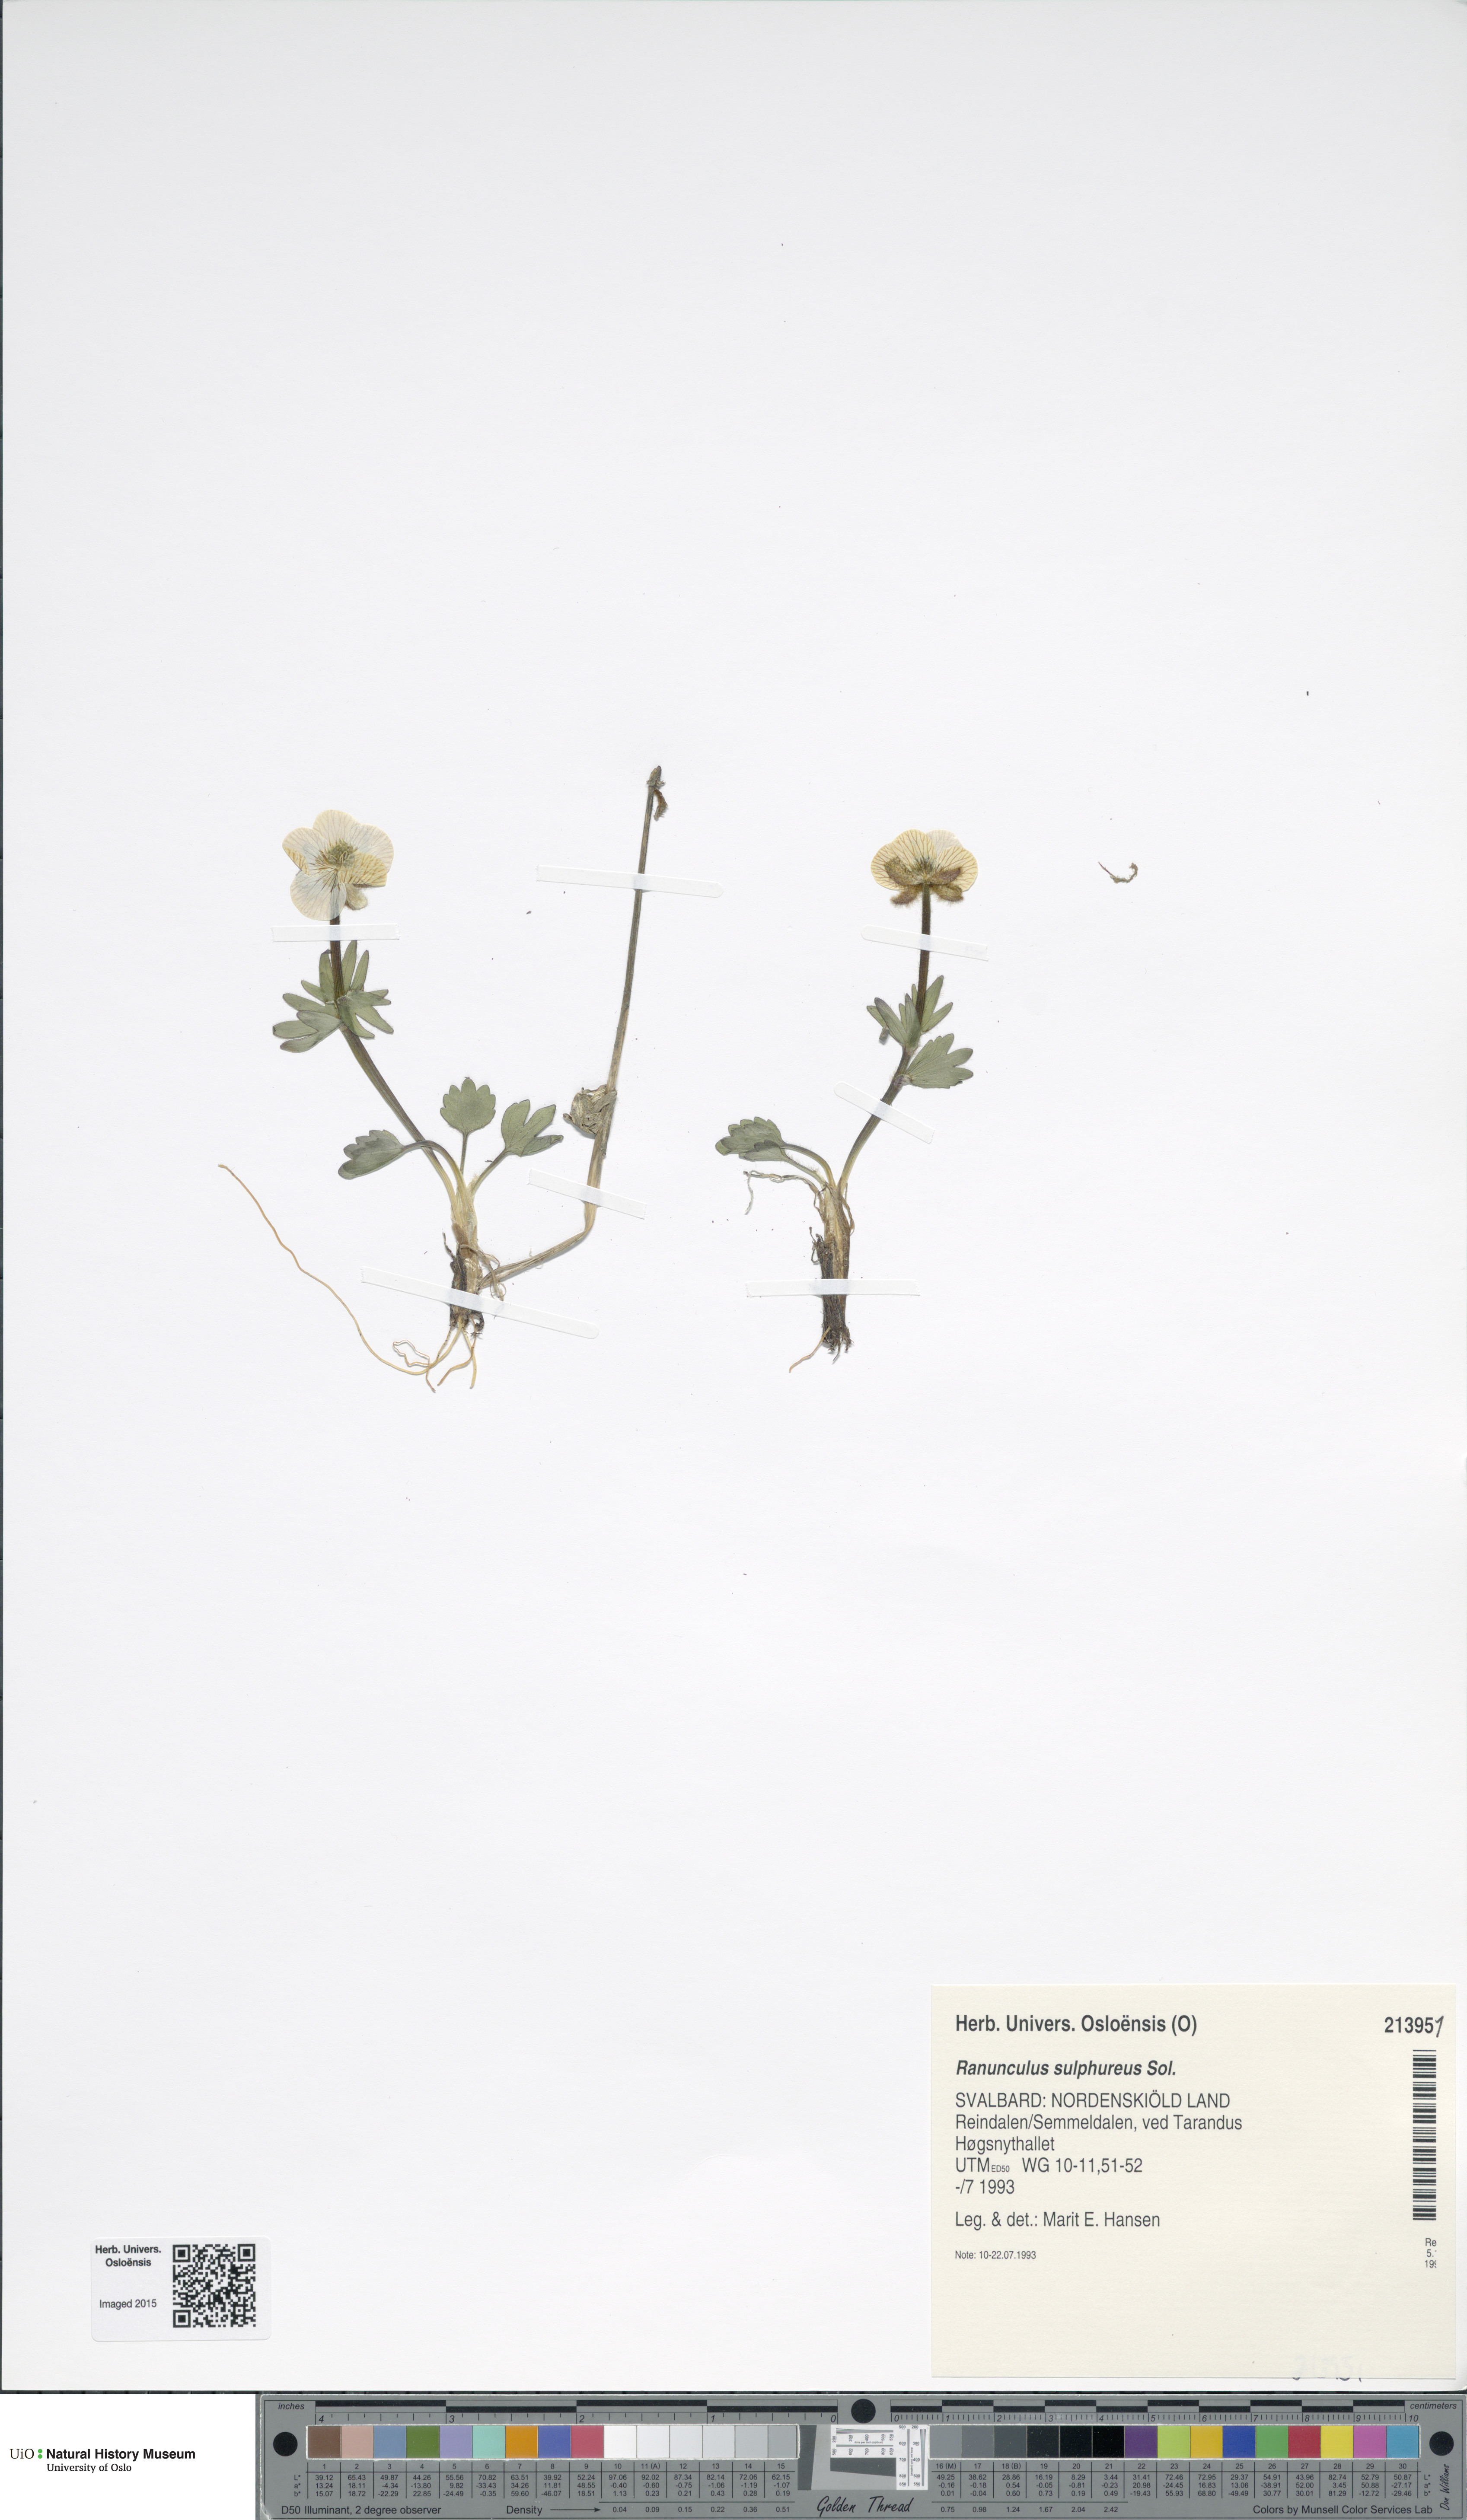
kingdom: Plantae
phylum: Tracheophyta
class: Magnoliopsida
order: Ranunculales
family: Ranunculaceae
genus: Ranunculus
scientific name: Ranunculus sulphureus
